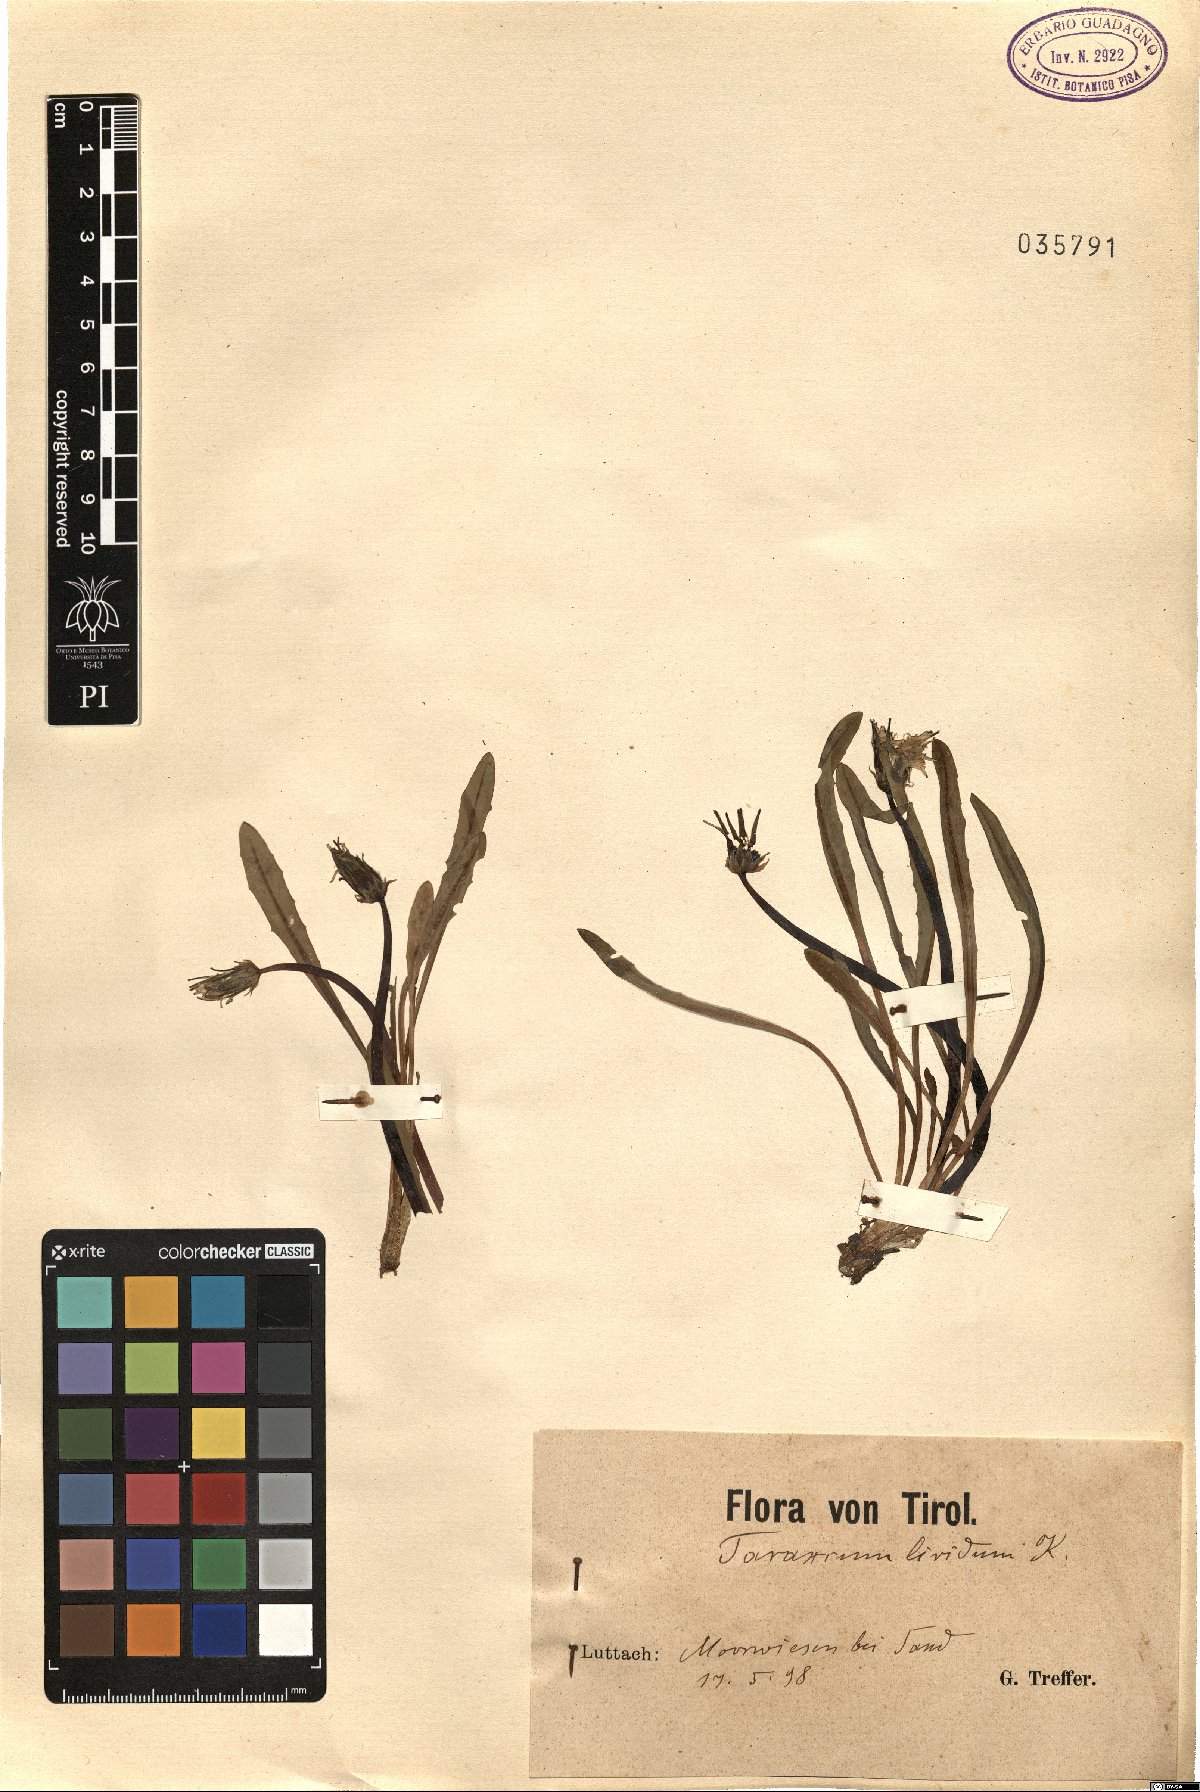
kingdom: Plantae
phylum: Tracheophyta
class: Magnoliopsida
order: Asterales
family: Asteraceae
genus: Taraxacum
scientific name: Taraxacum paludosum
